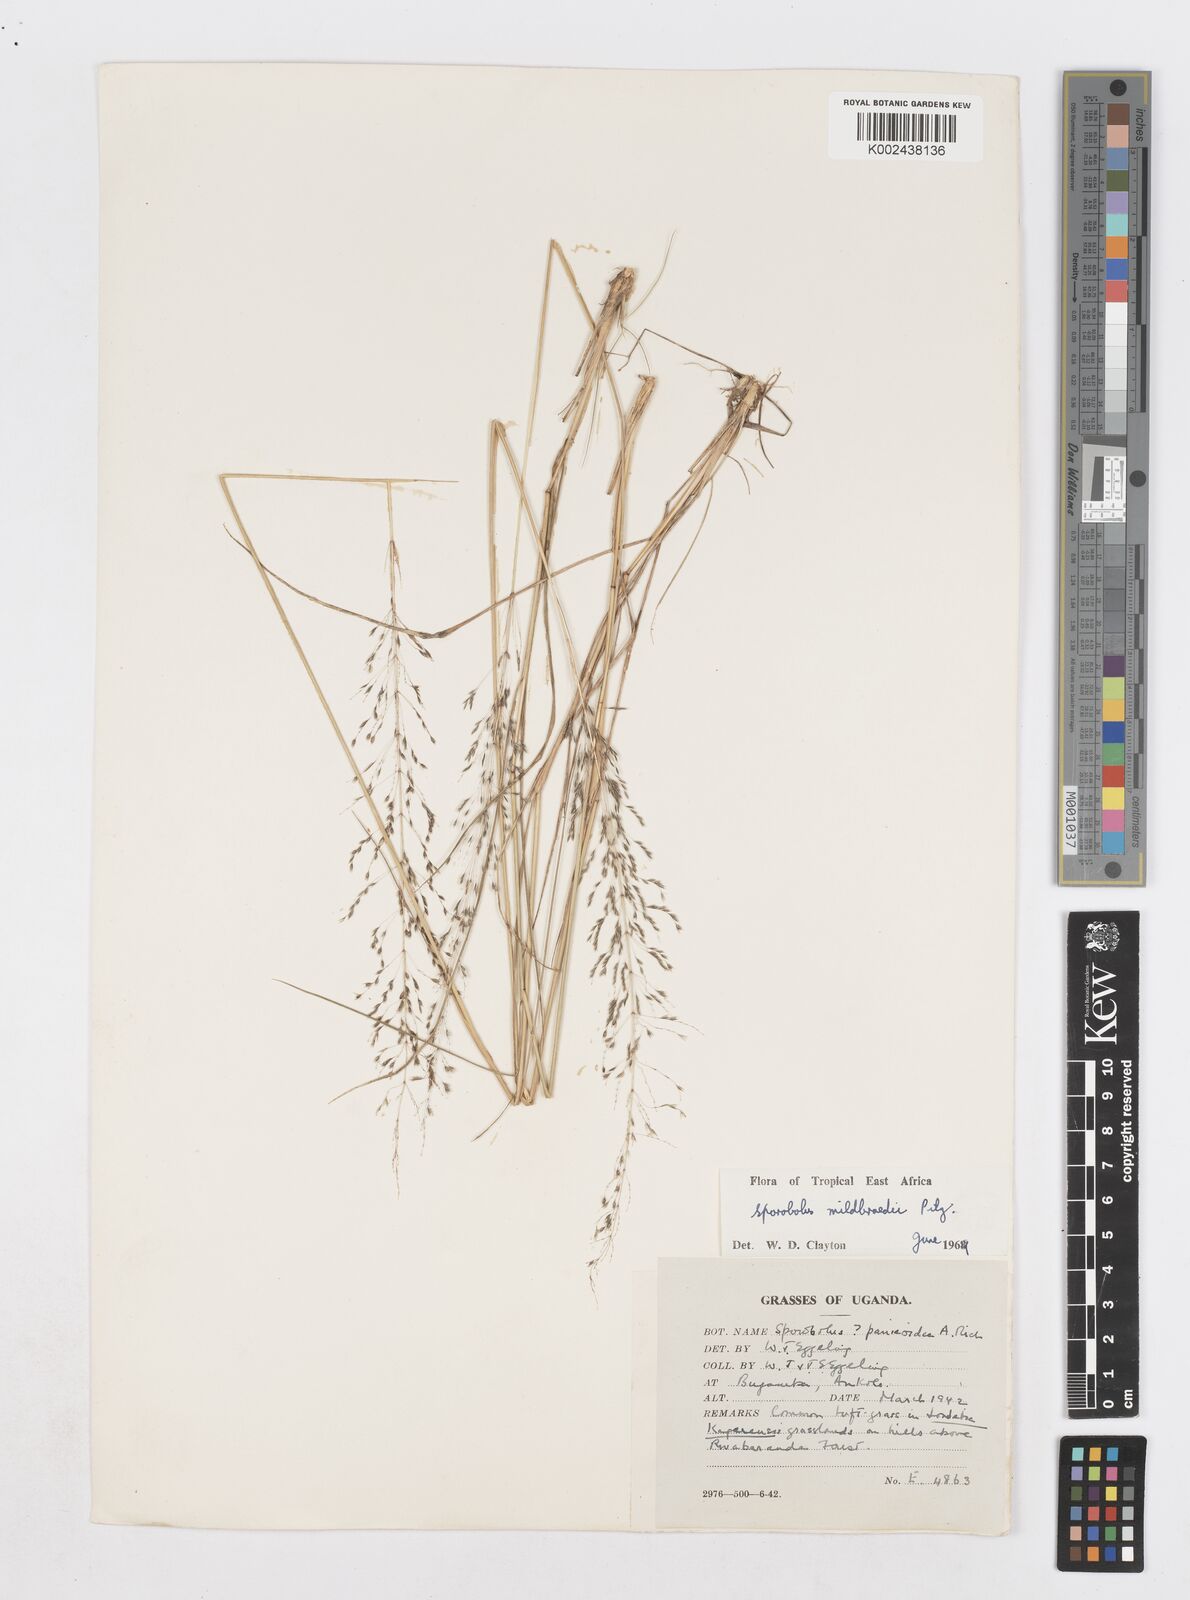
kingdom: Plantae
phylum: Tracheophyta
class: Liliopsida
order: Poales
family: Poaceae
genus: Sporobolus
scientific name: Sporobolus mildbraedii
